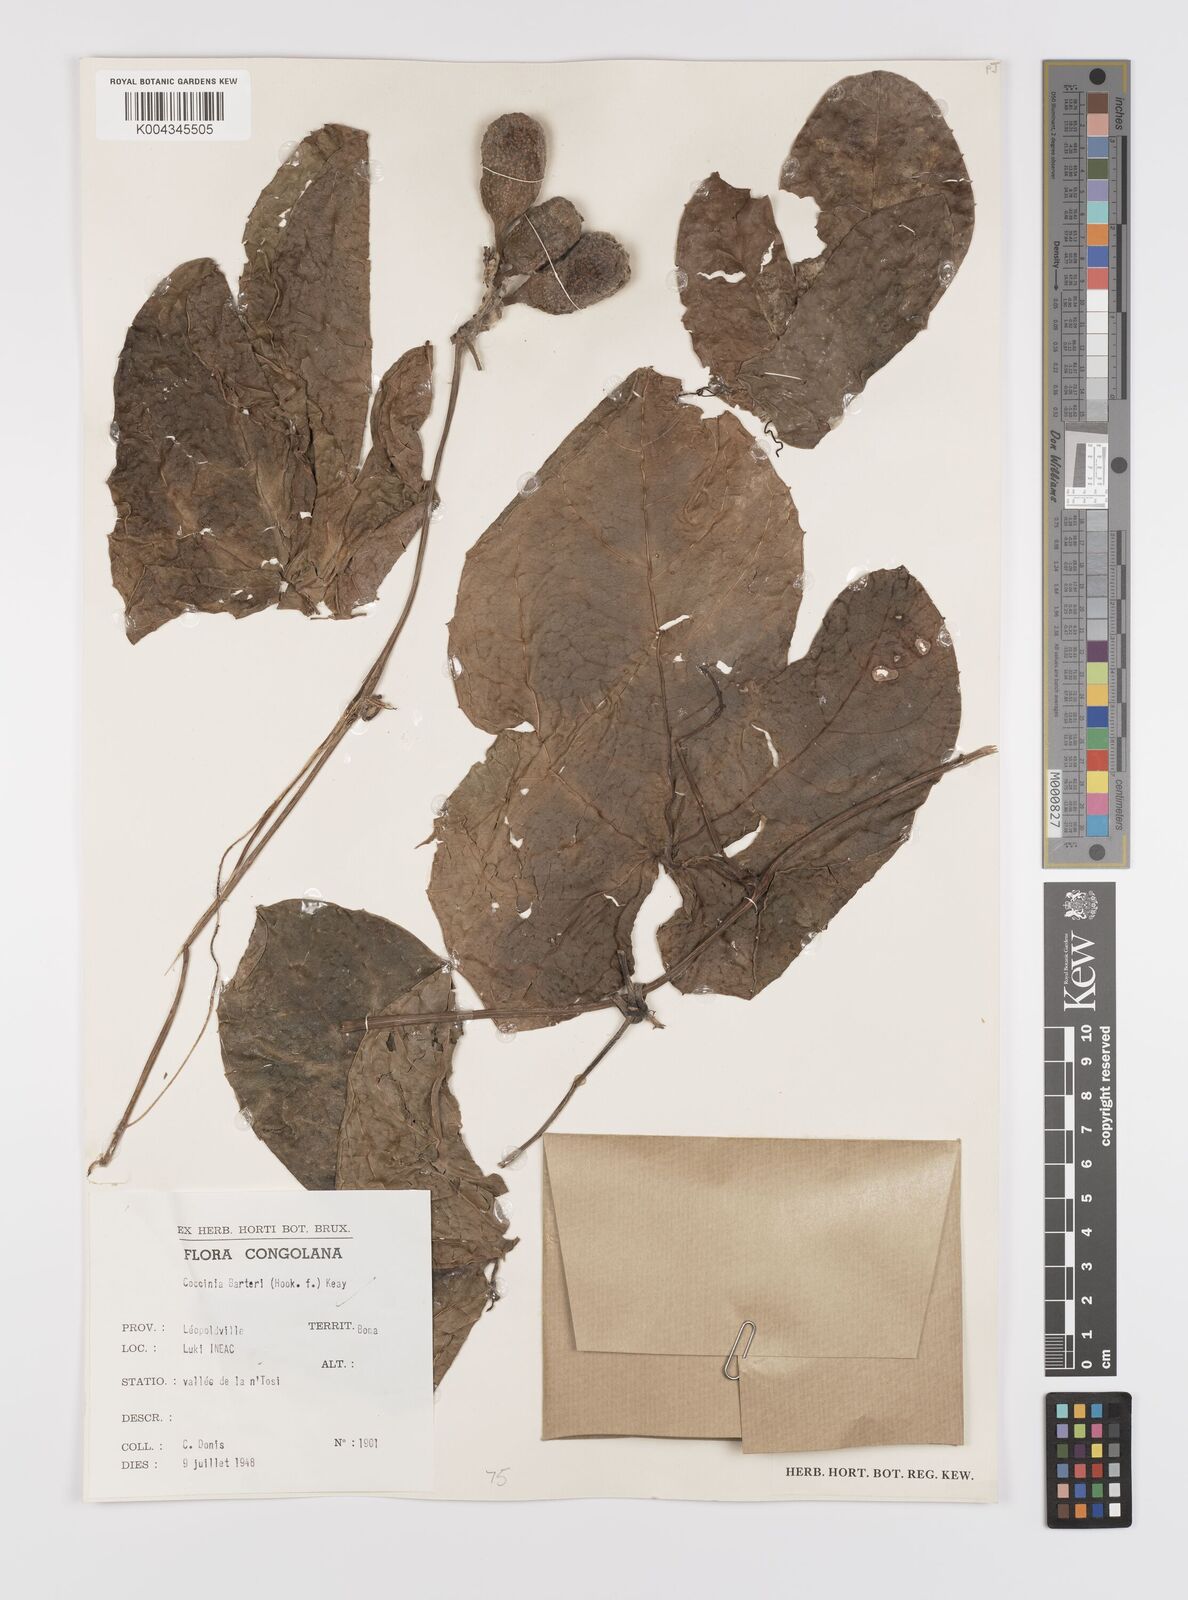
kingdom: Plantae
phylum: Tracheophyta
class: Magnoliopsida
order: Cucurbitales
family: Cucurbitaceae
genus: Coccinia
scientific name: Coccinia barteri
